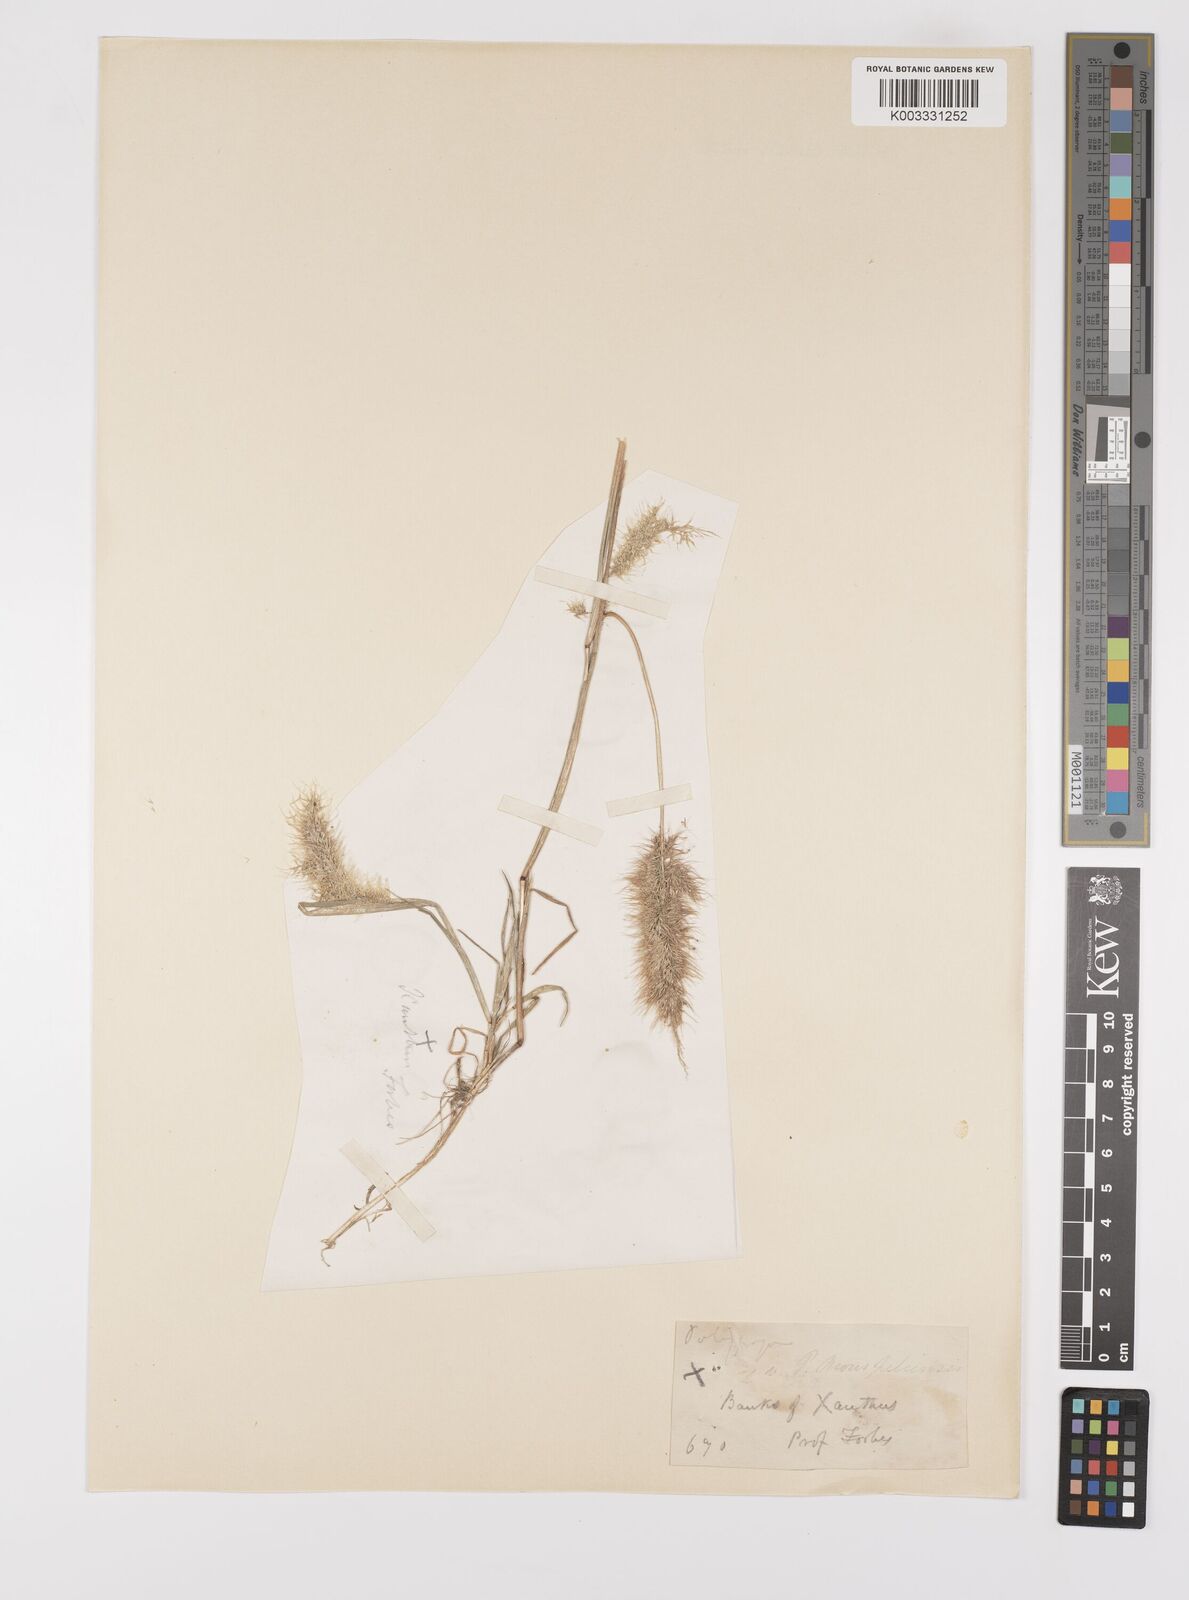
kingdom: Plantae
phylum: Tracheophyta
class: Liliopsida
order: Poales
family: Poaceae
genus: Polypogon
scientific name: Polypogon maritimus
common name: Mediterranean rabbitsfoot grass
